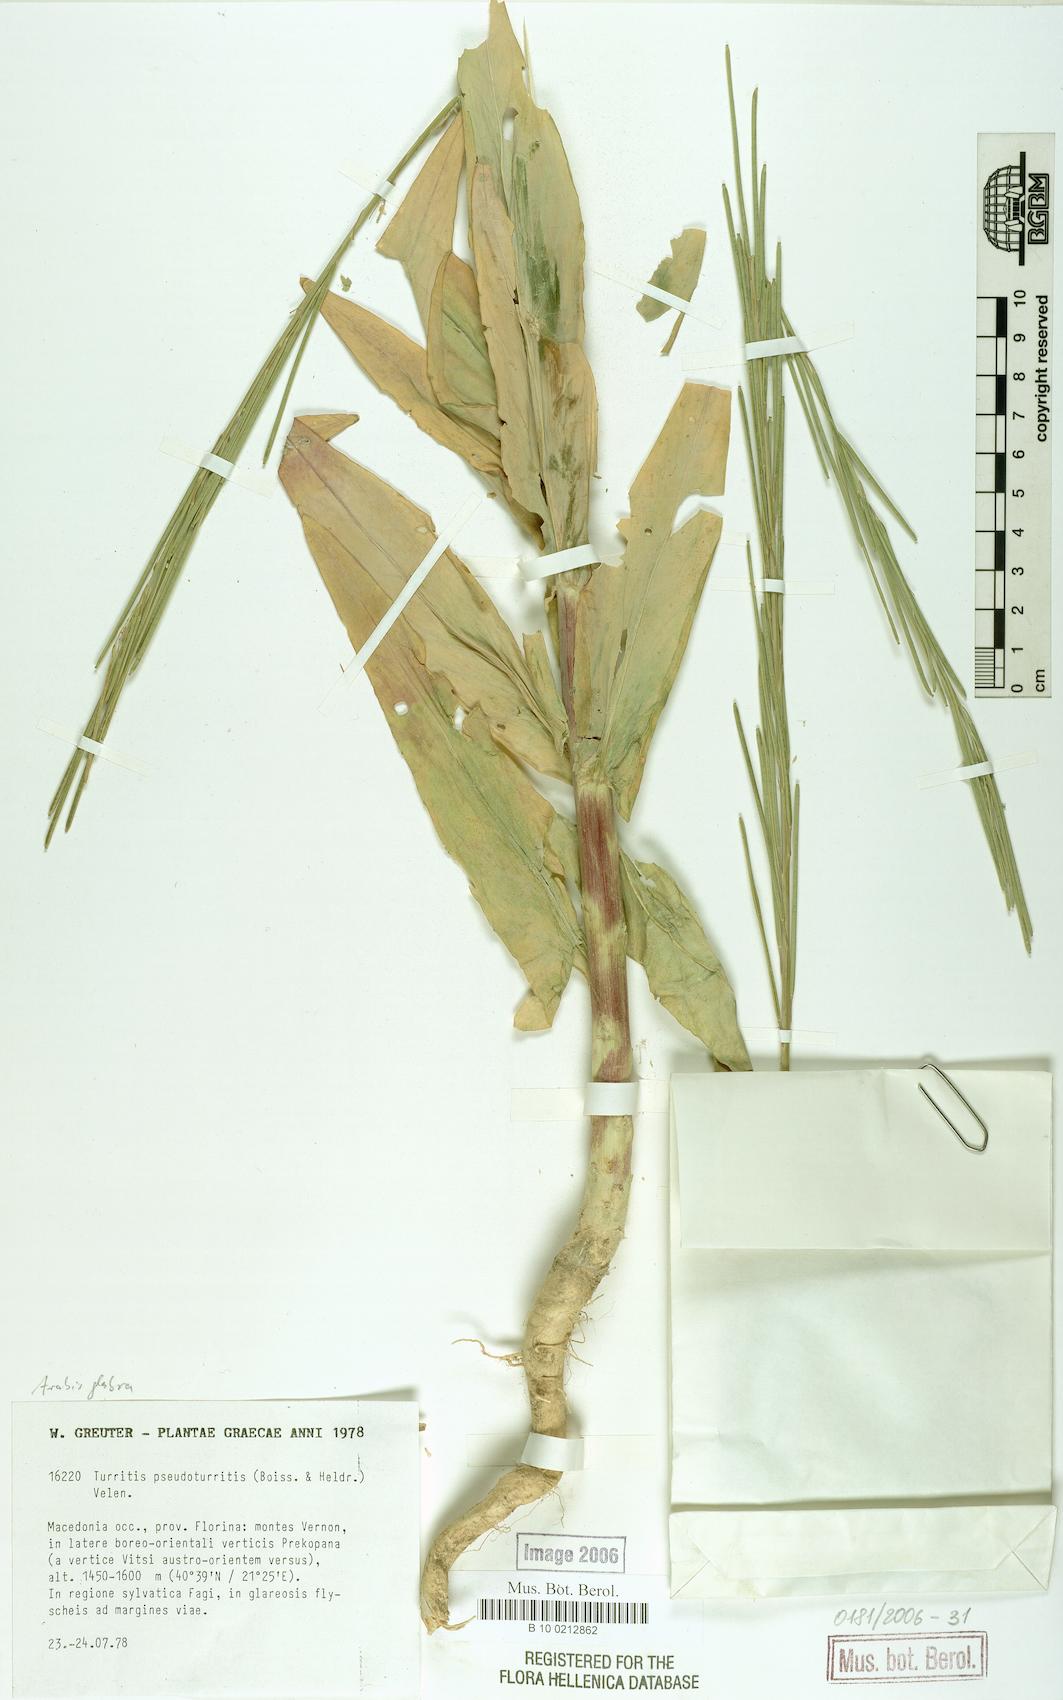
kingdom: Plantae
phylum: Tracheophyta
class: Magnoliopsida
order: Brassicales
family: Brassicaceae
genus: Turritis
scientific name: Turritis glabra
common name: Tower rockcress
